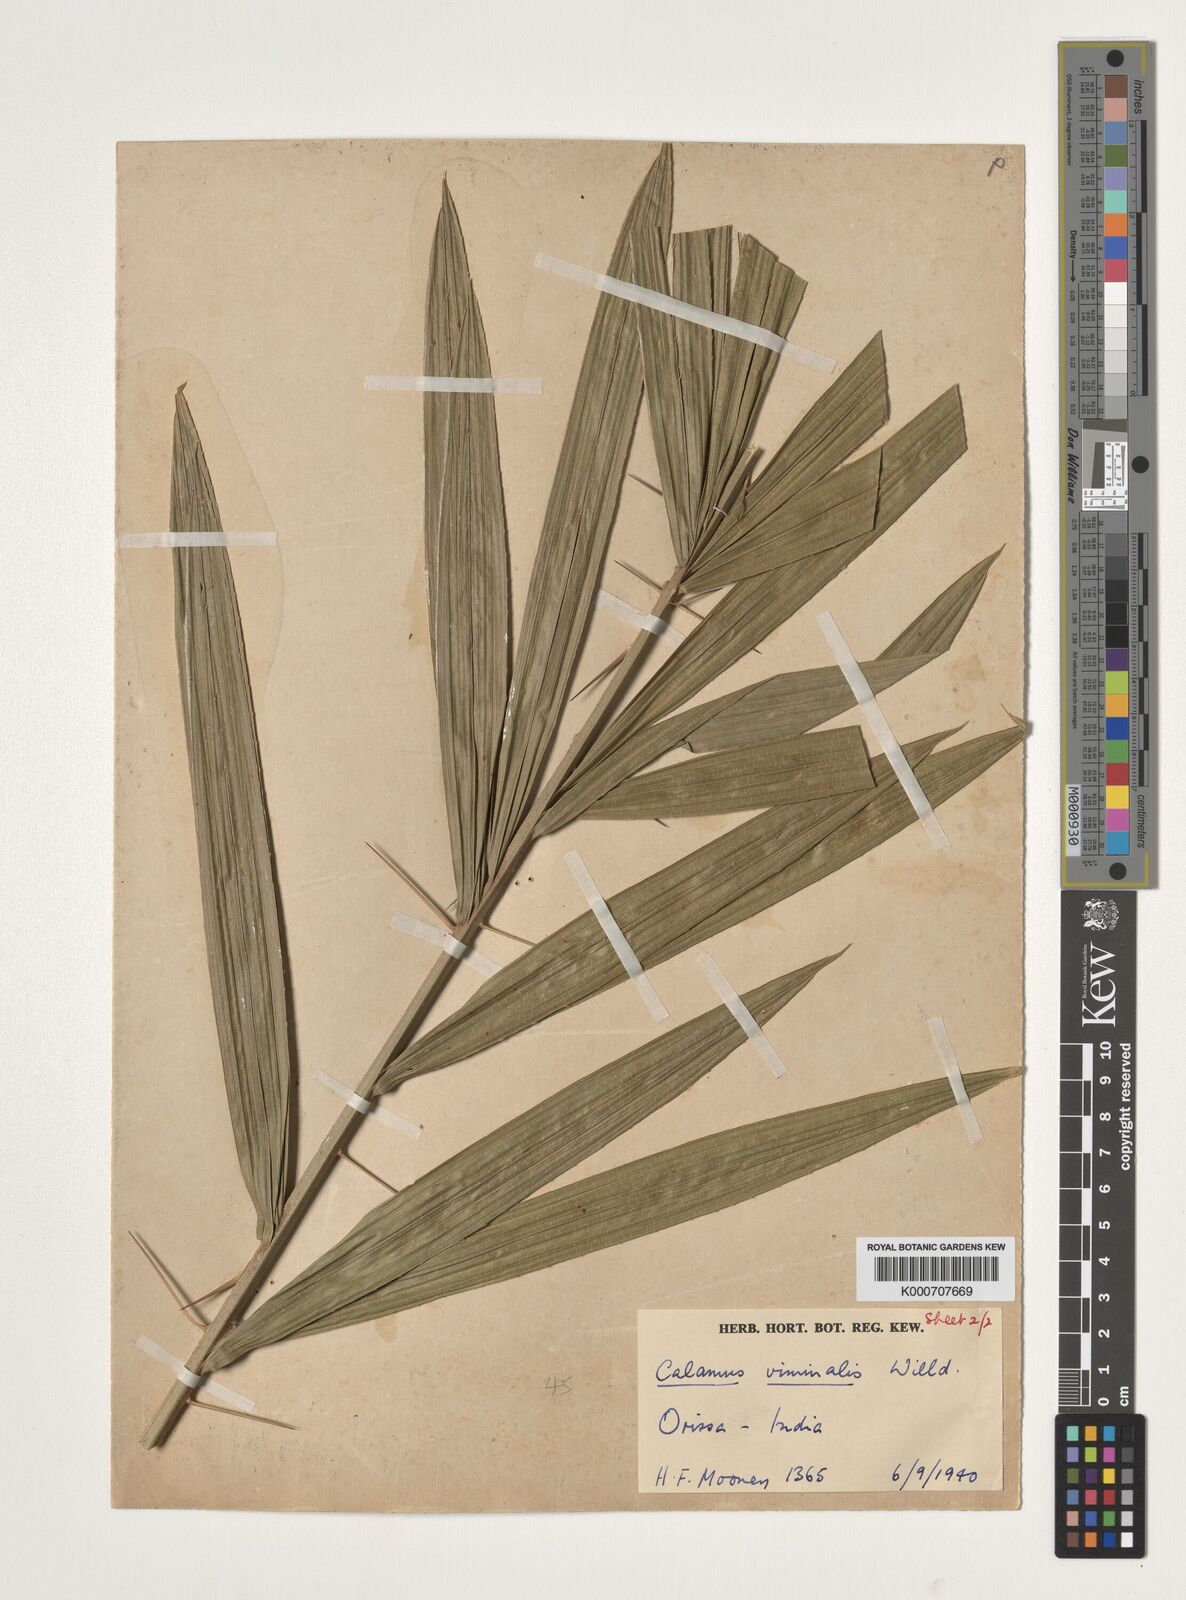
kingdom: Plantae
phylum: Tracheophyta
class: Liliopsida
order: Arecales
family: Arecaceae
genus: Calamus
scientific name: Calamus viminalis
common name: Osier-like rattan palm
